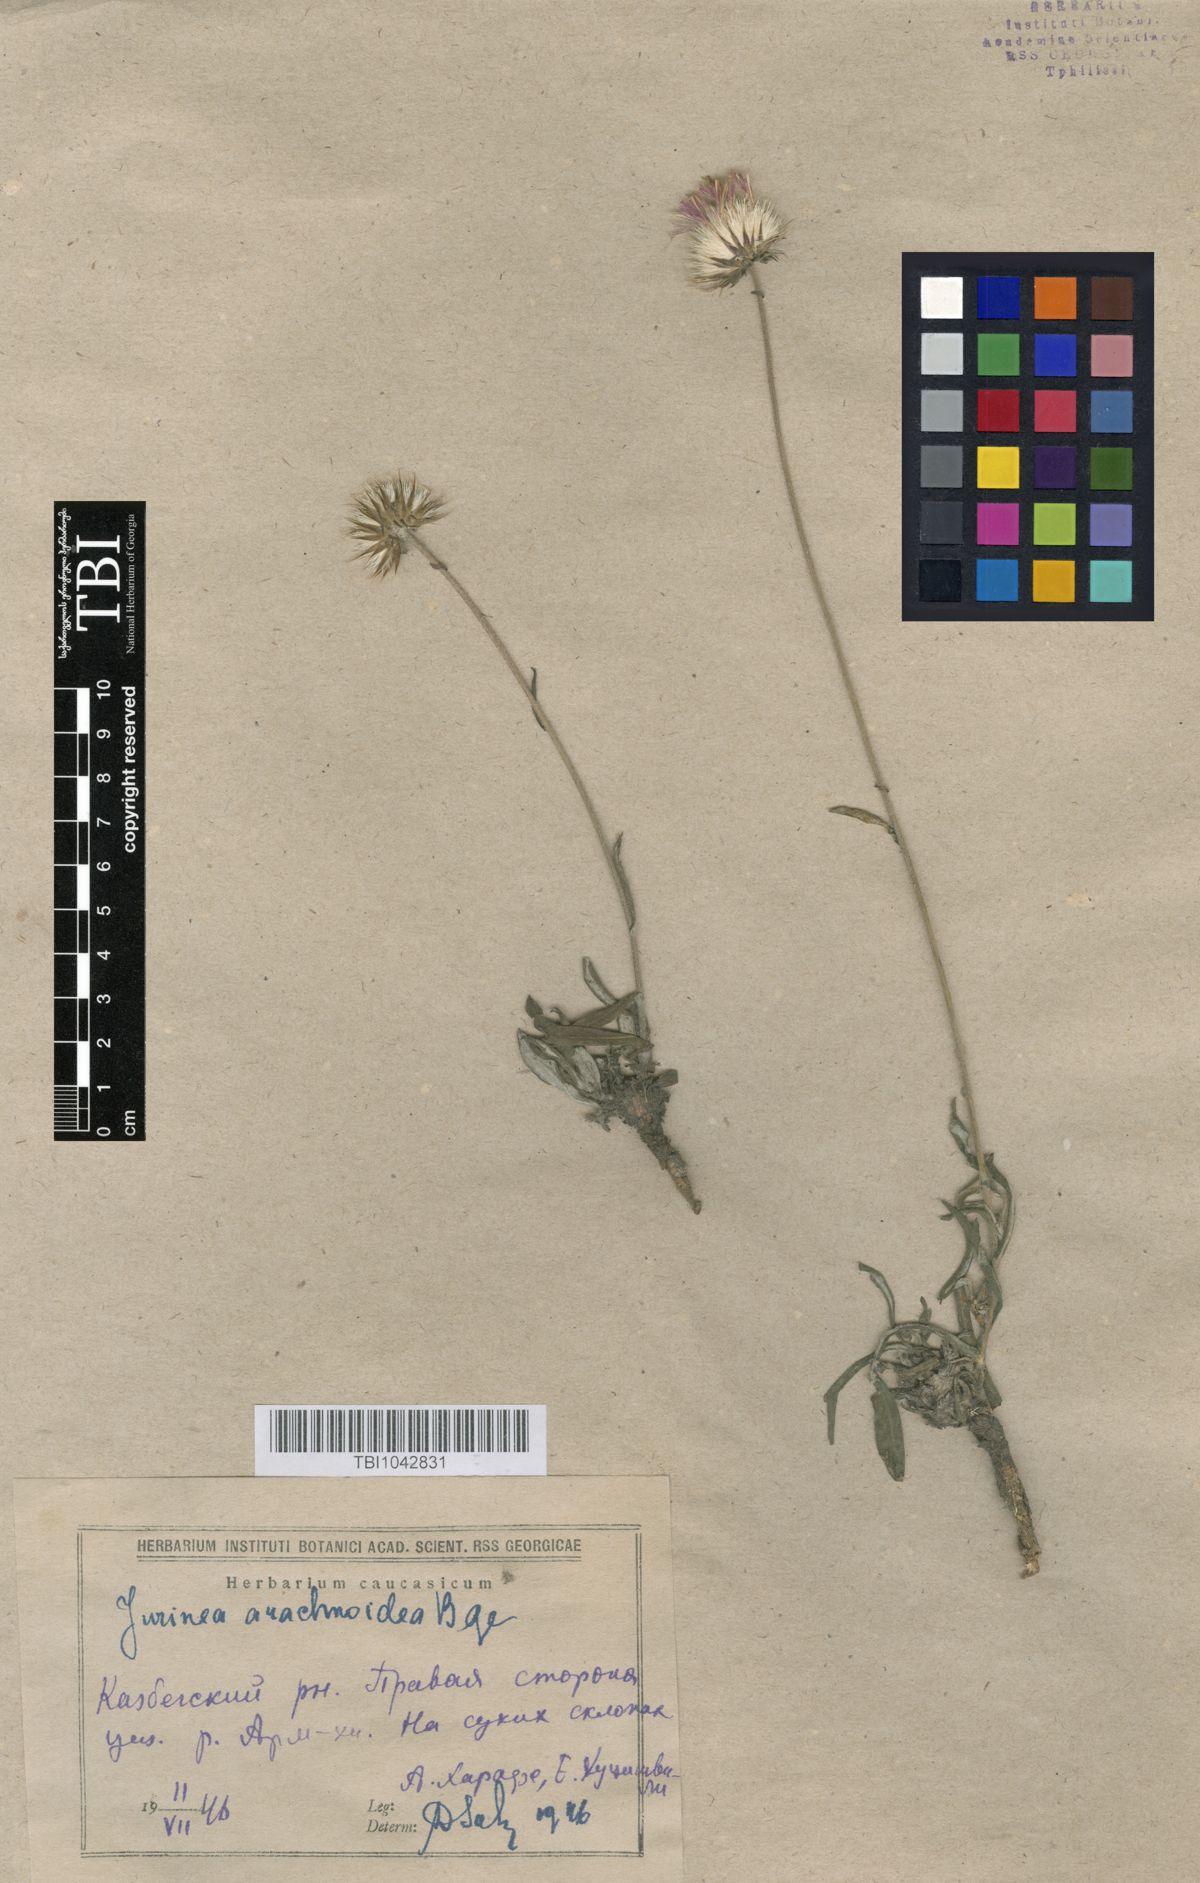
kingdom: Plantae
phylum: Tracheophyta
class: Magnoliopsida
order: Asterales
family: Asteraceae
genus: Jurinea
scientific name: Jurinea blanda
